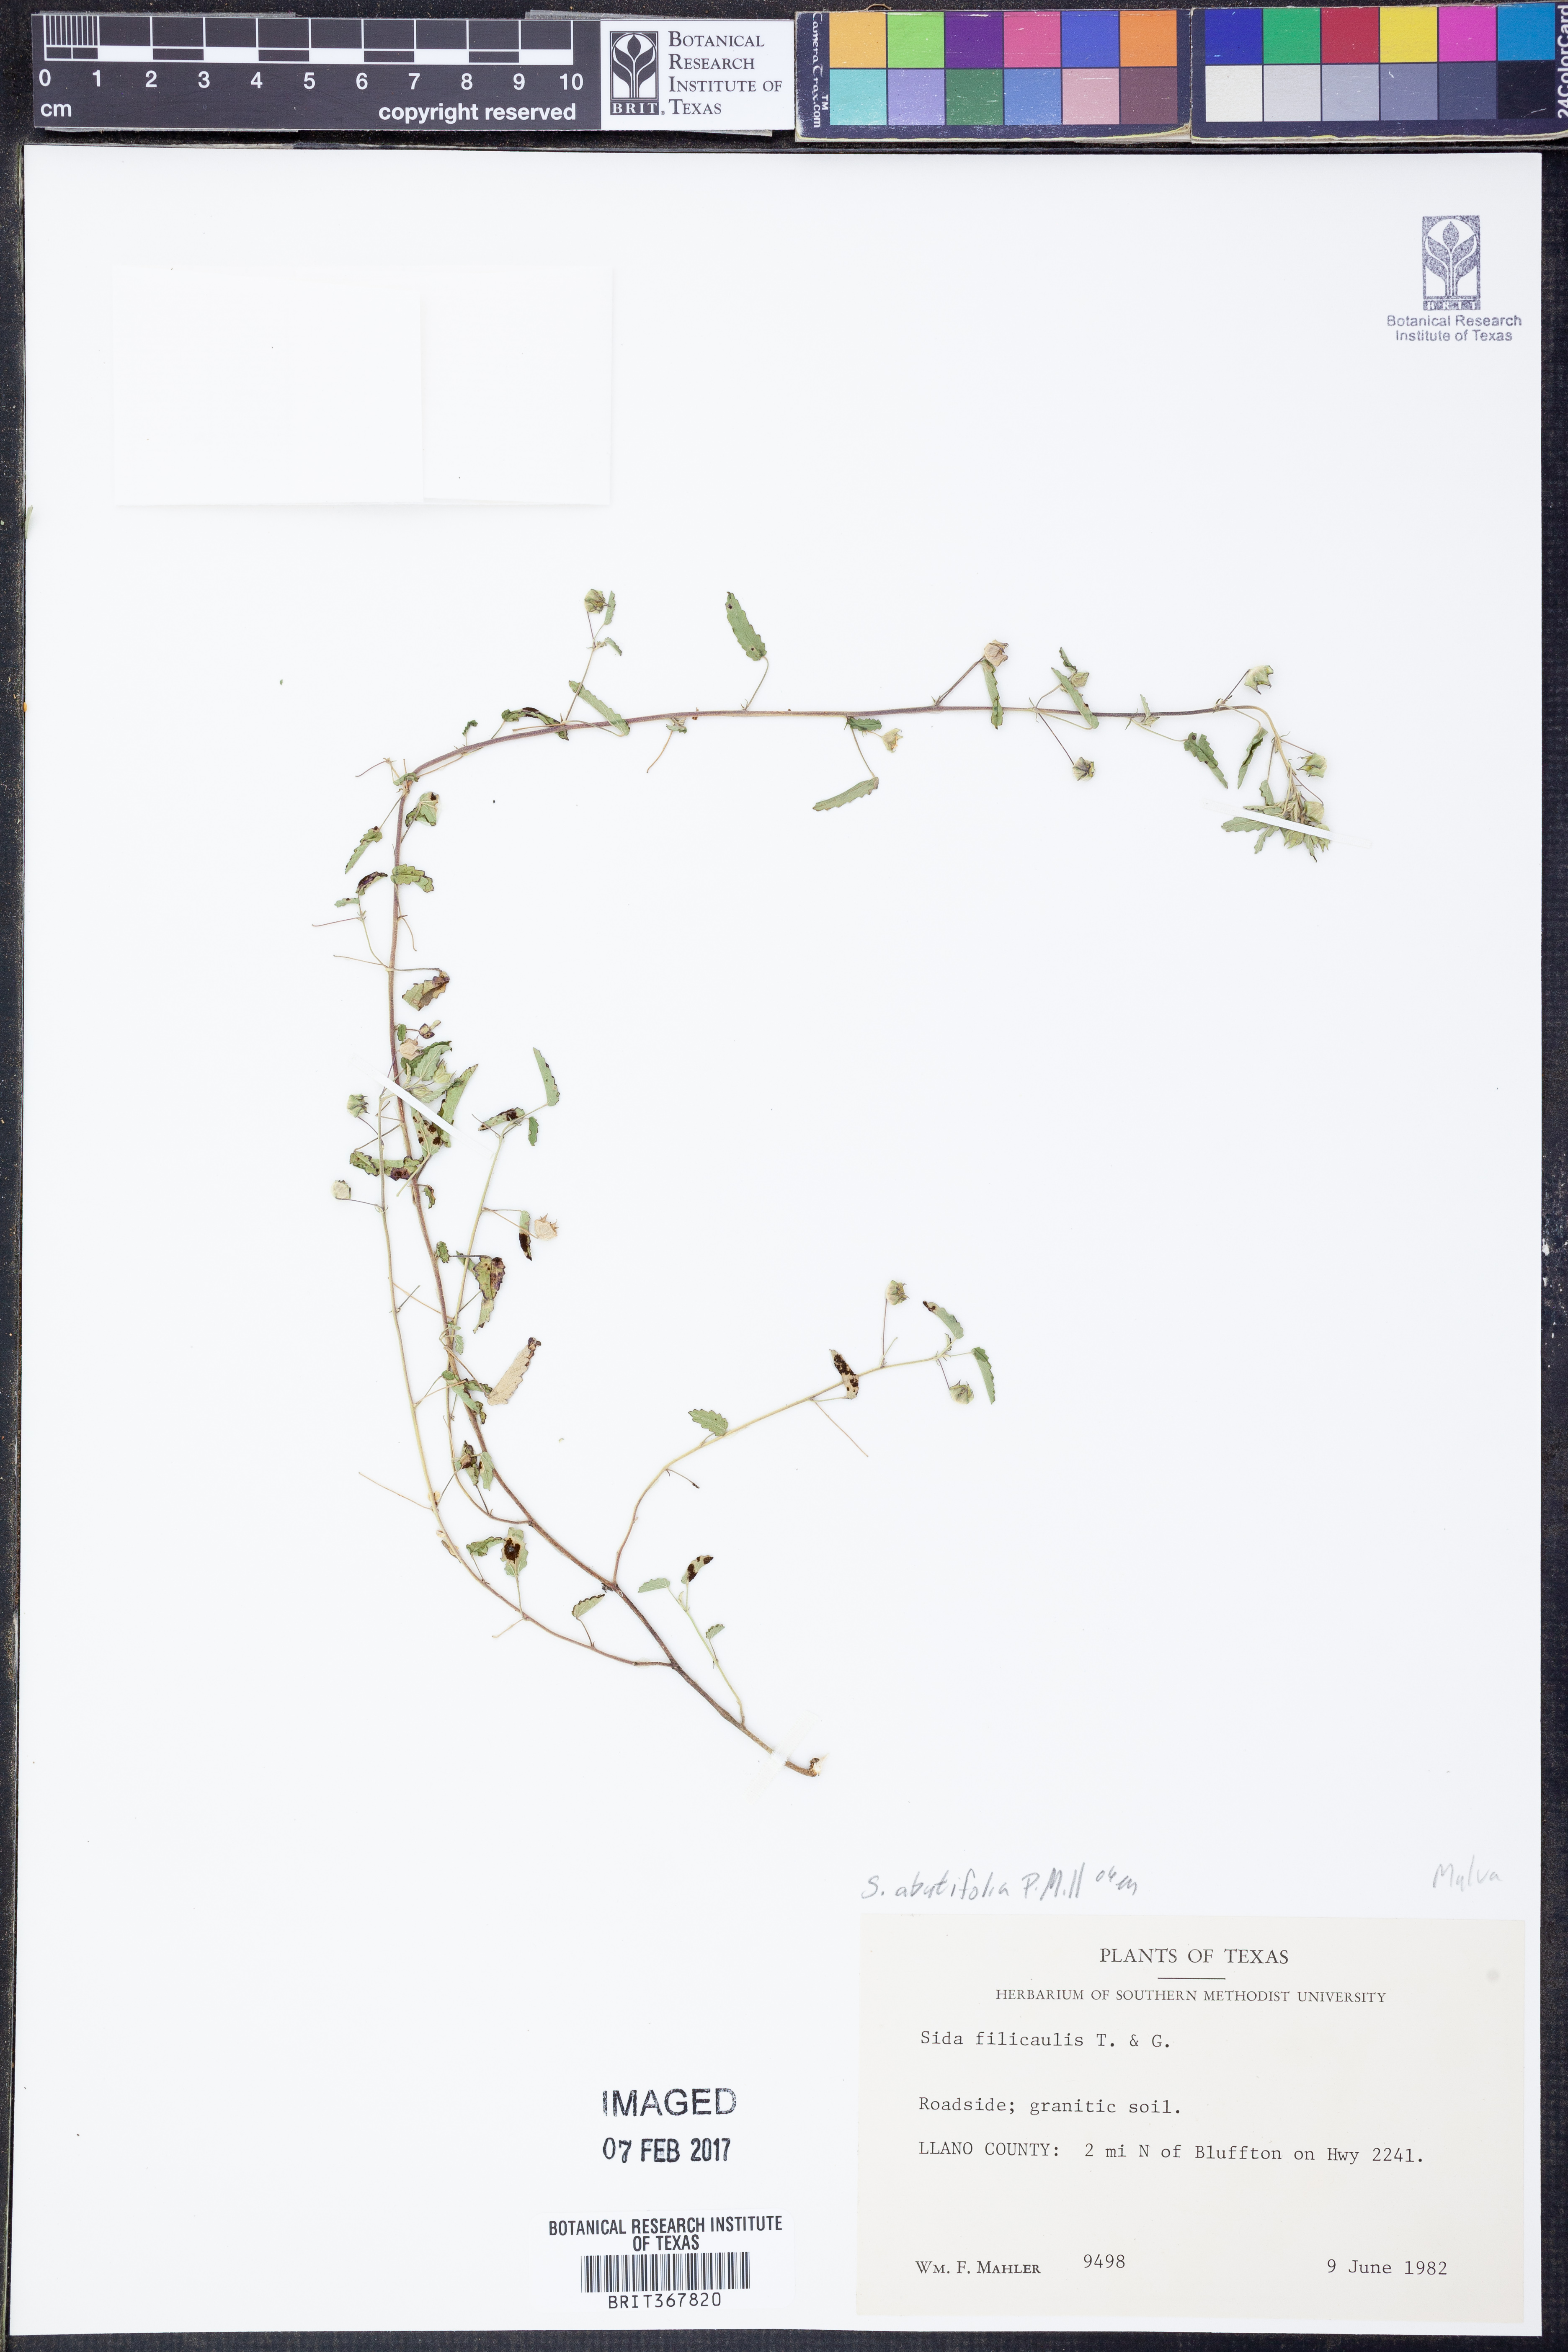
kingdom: Plantae
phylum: Tracheophyta
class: Magnoliopsida
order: Malvales
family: Malvaceae
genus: Sida
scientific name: Sida abutifolia
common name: Spreading fantails
